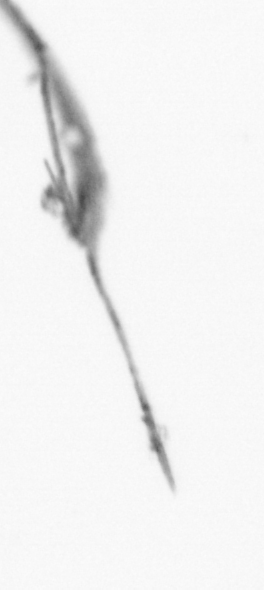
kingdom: Animalia
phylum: Arthropoda
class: Copepoda
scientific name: Copepoda
